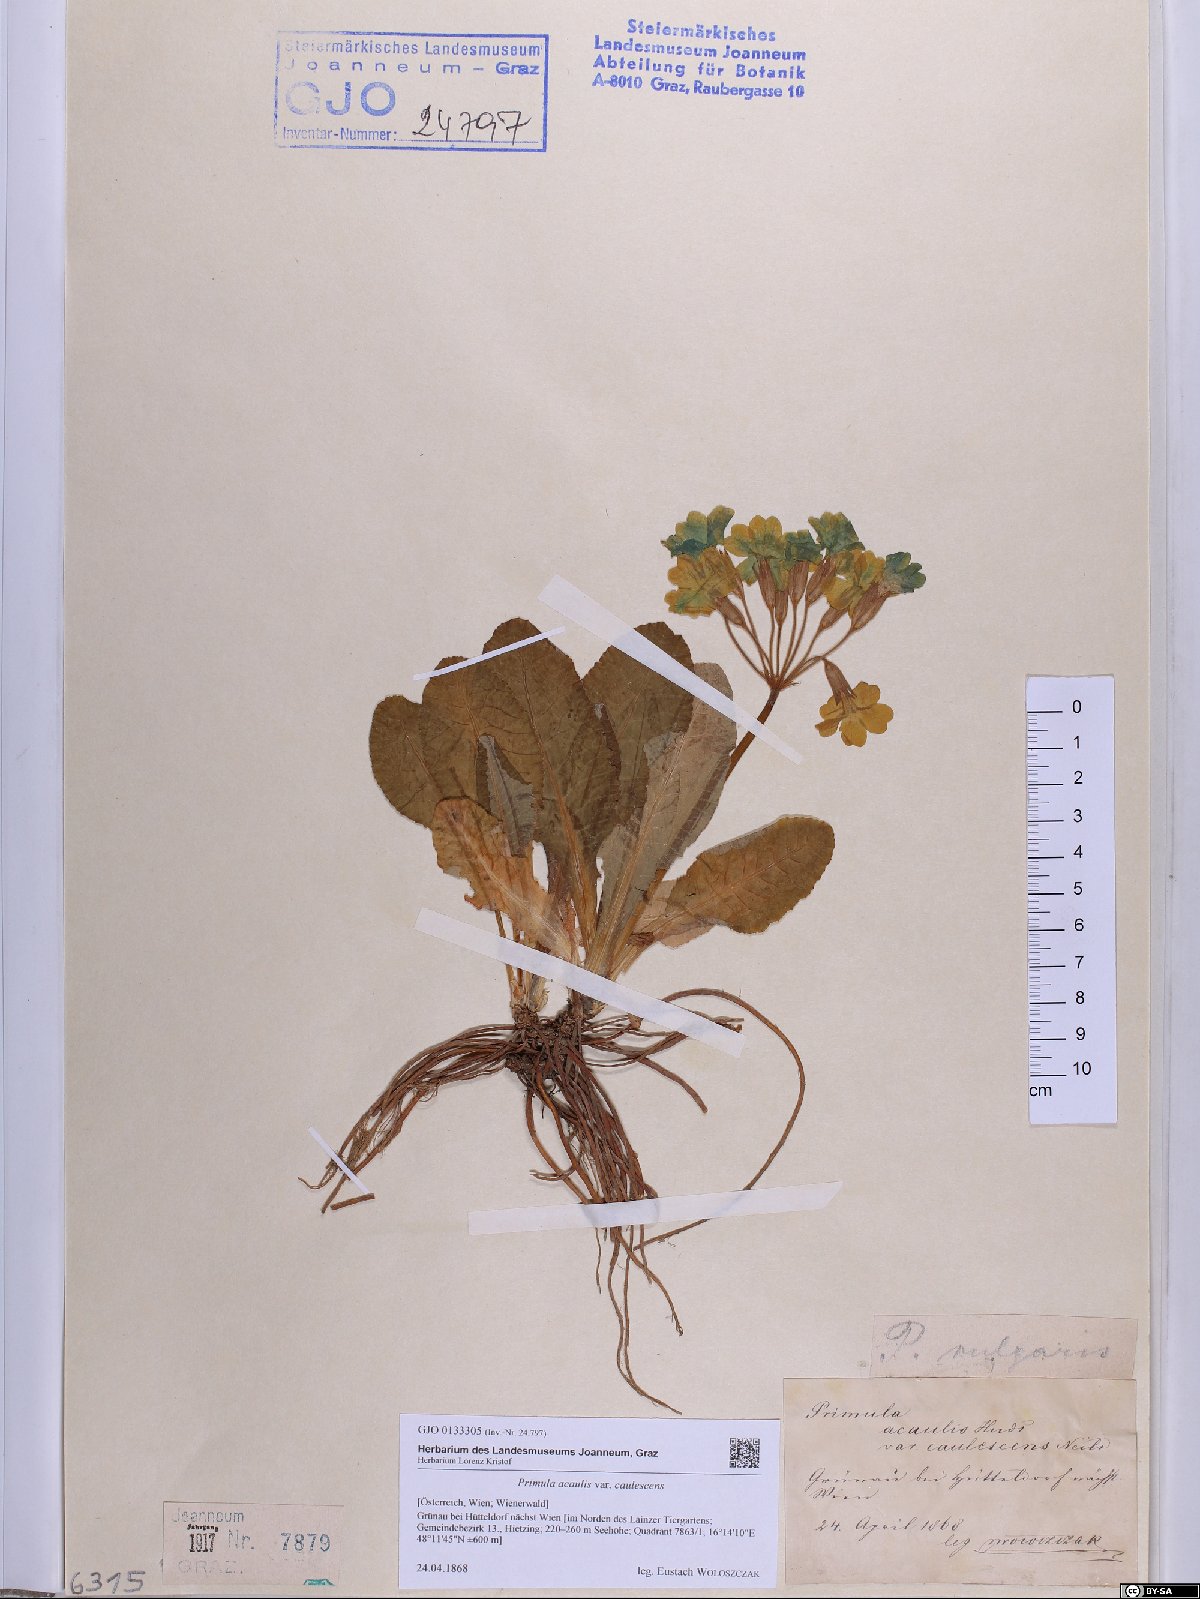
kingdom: Plantae
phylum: Tracheophyta
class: Magnoliopsida
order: Ericales
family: Primulaceae
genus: Primula
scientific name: Primula vulgaris
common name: Primrose
